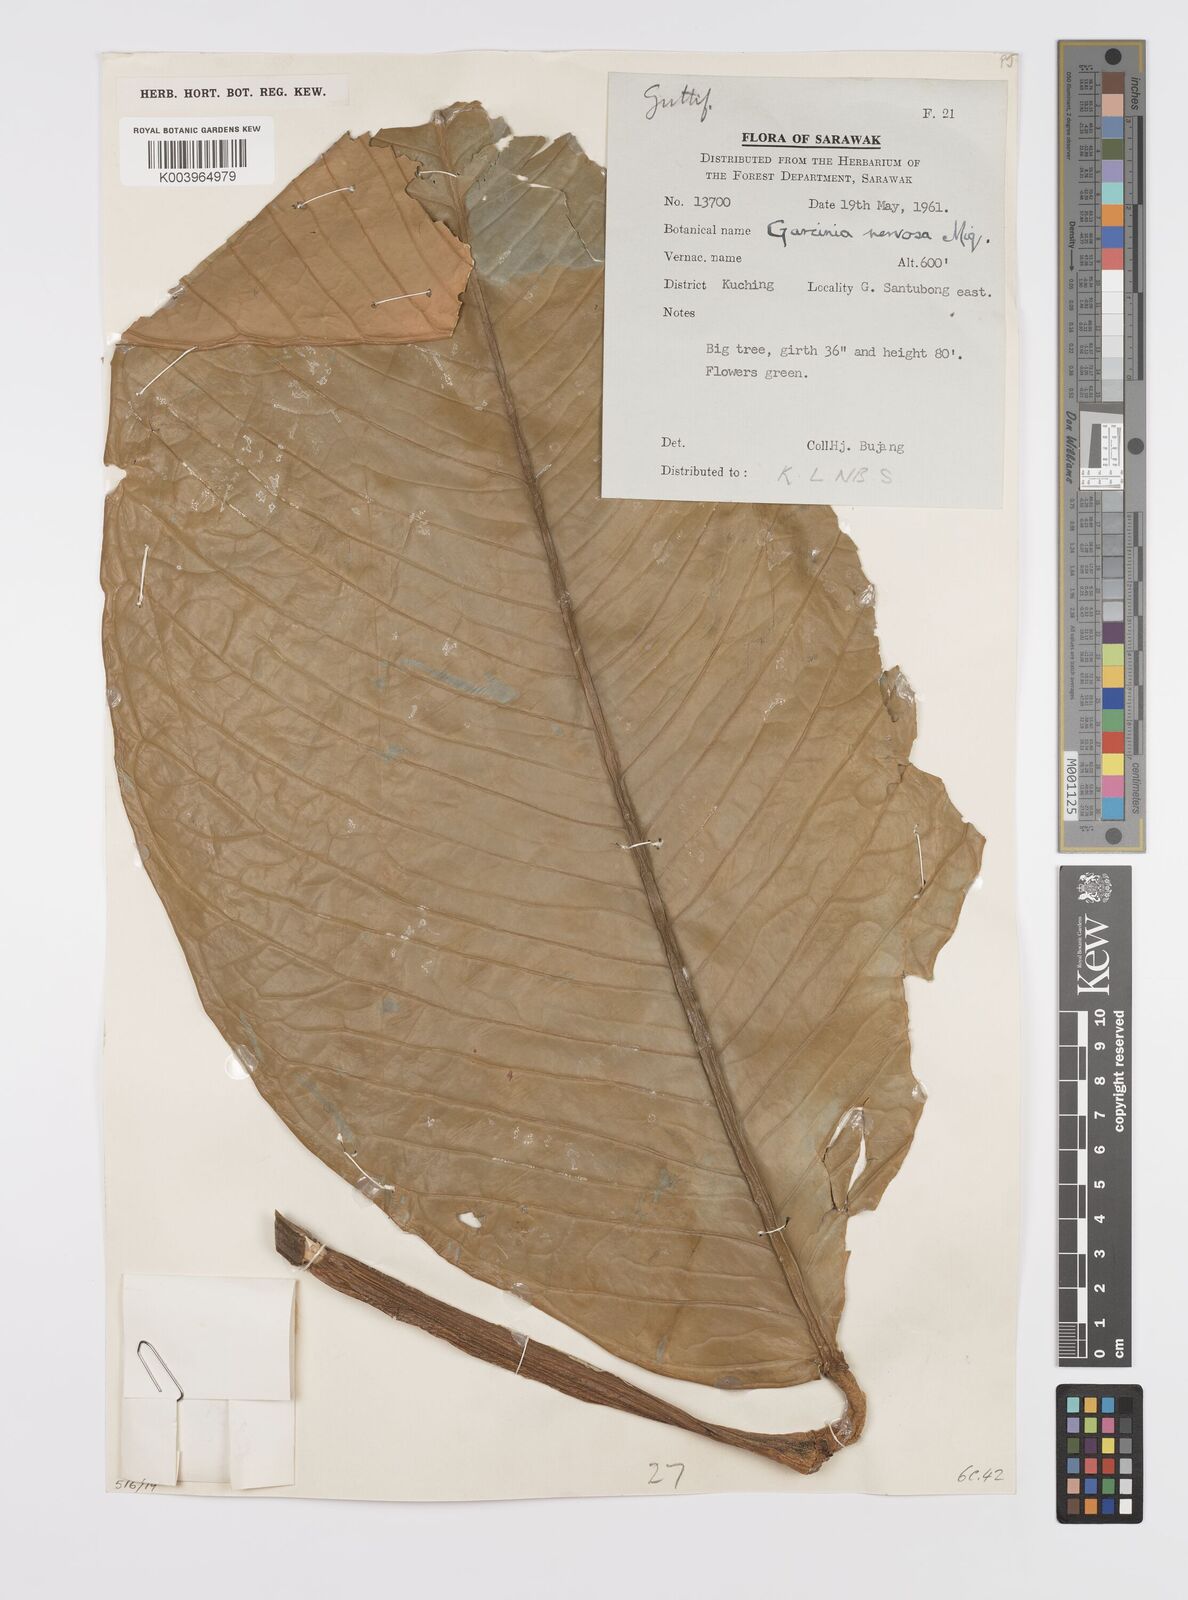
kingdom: Plantae
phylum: Tracheophyta
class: Magnoliopsida
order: Malpighiales
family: Clusiaceae
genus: Garcinia
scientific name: Garcinia nervosa
